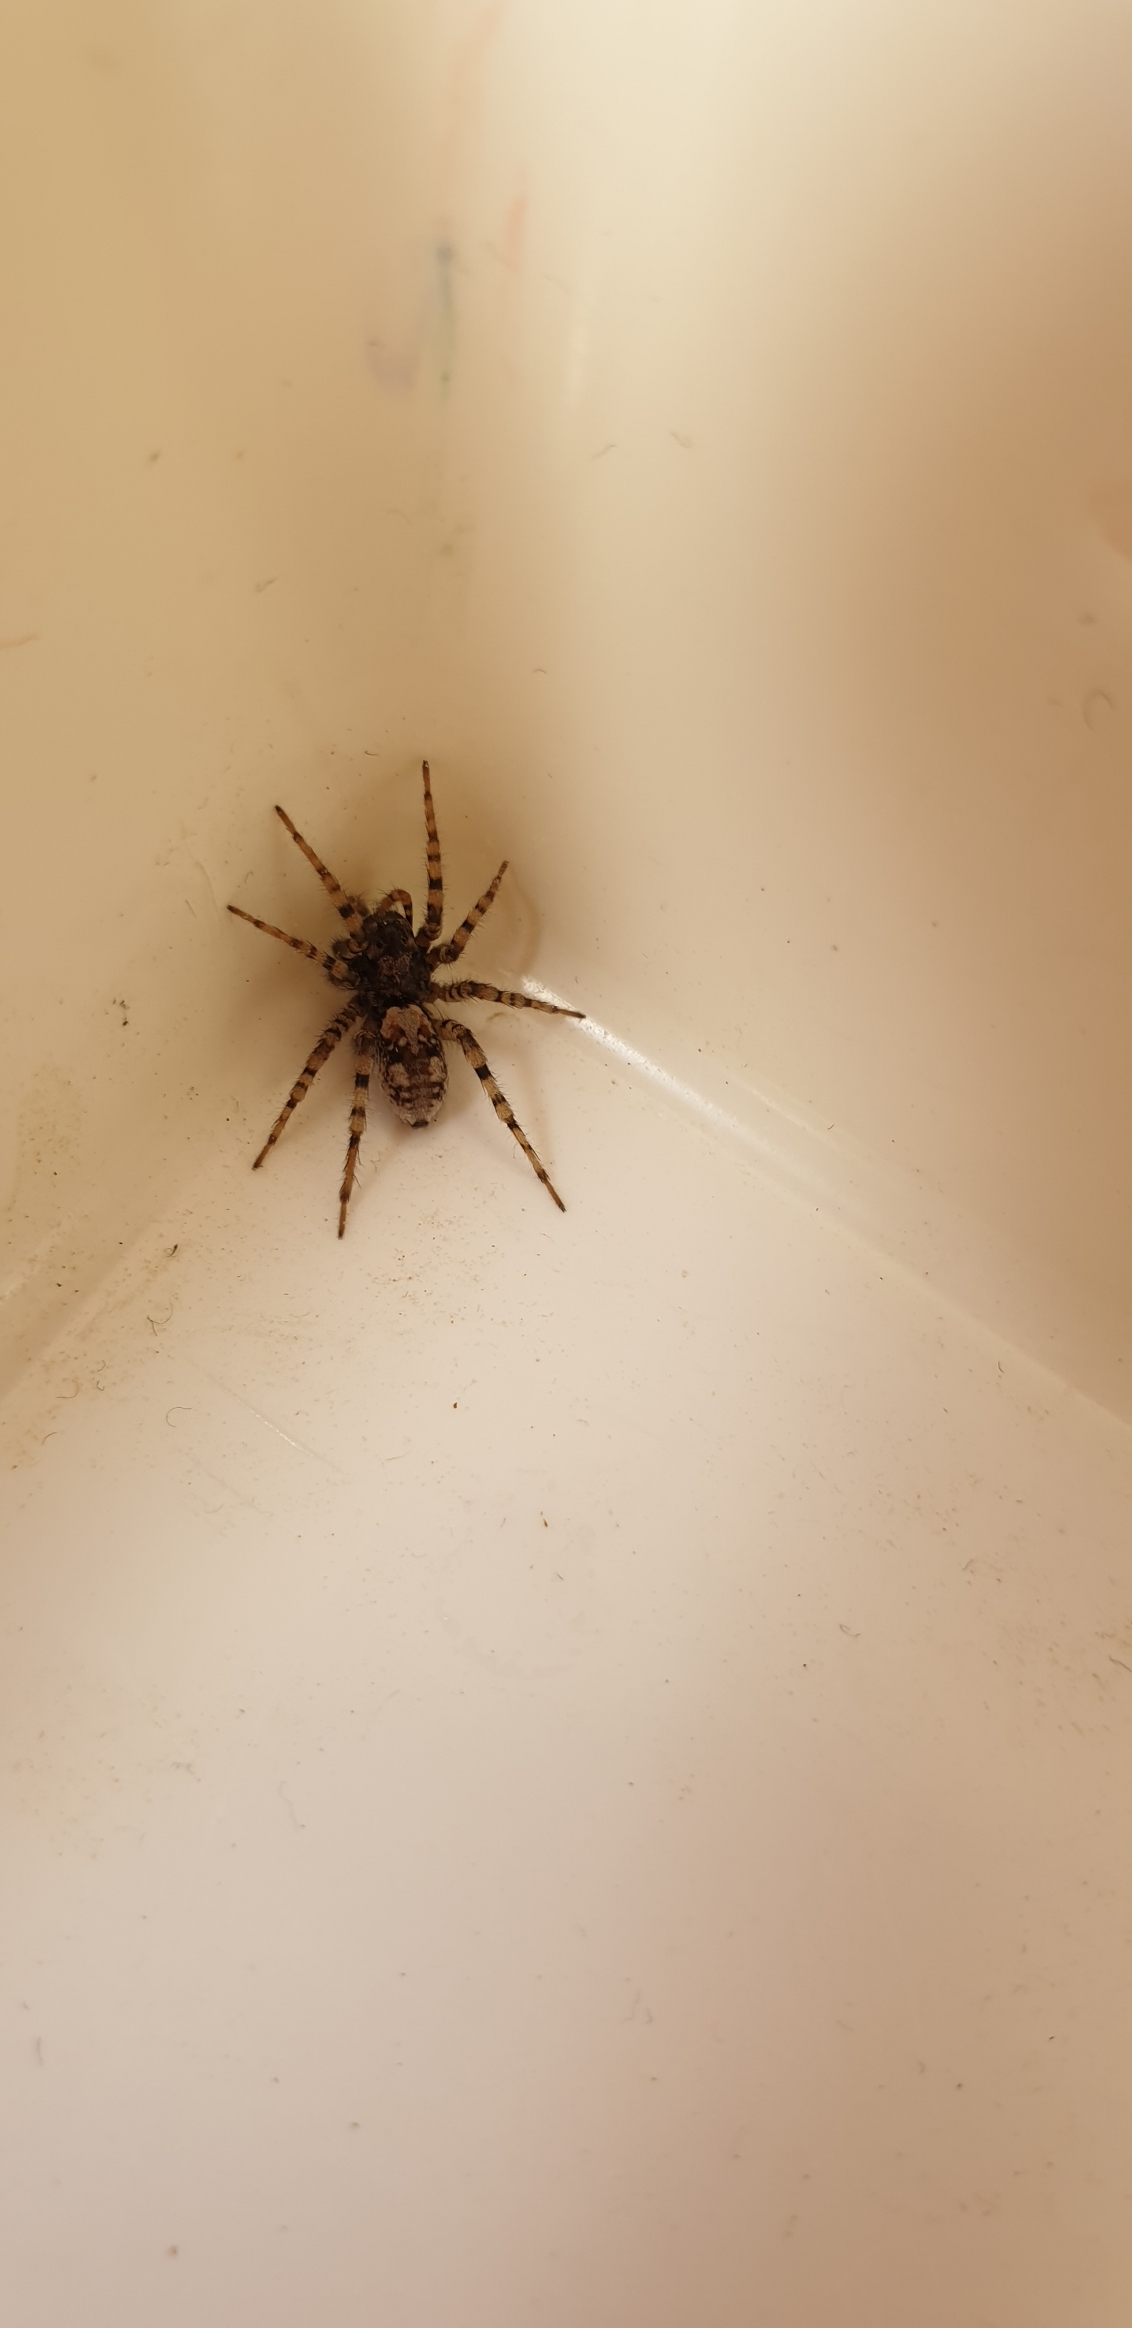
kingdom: Animalia
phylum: Arthropoda
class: Arachnida
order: Araneae
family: Lycosidae
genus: Arctosa
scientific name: Arctosa perita
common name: Klitgraveedderkop
